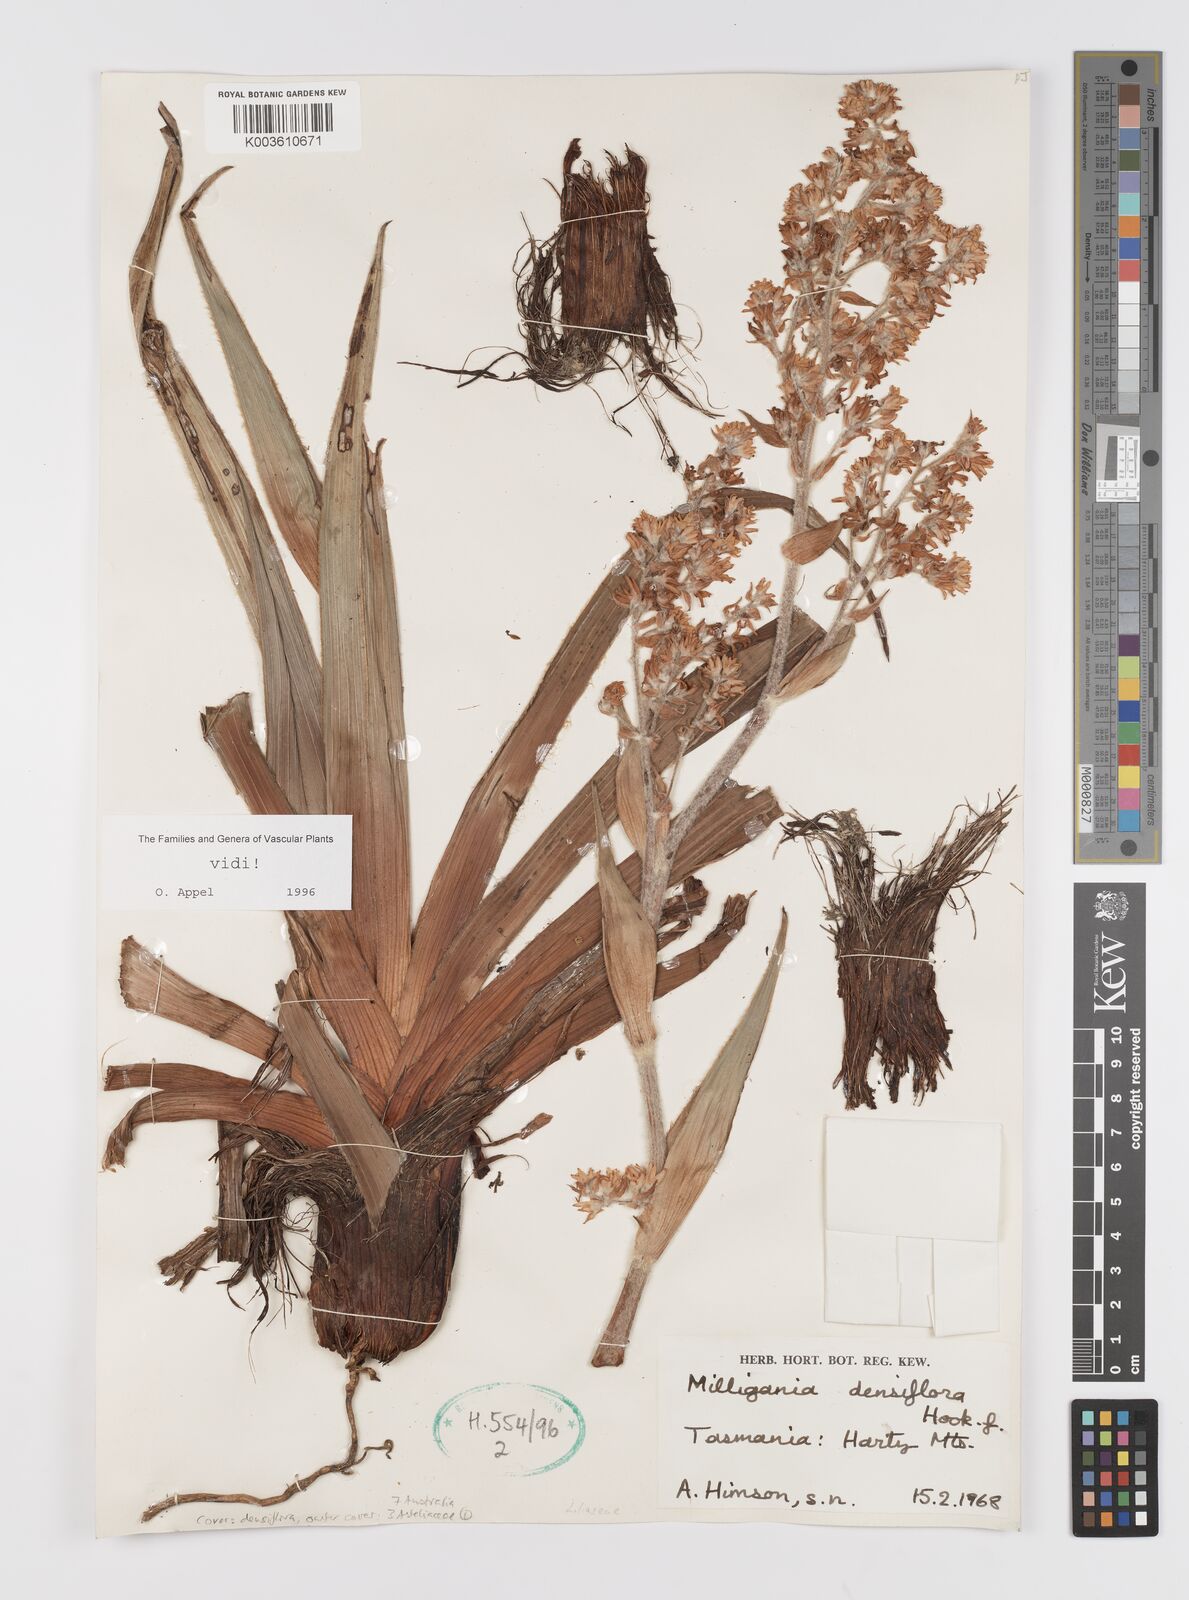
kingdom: Plantae
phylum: Tracheophyta
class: Liliopsida
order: Asparagales
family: Asteliaceae
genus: Milligania
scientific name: Milligania densiflora
